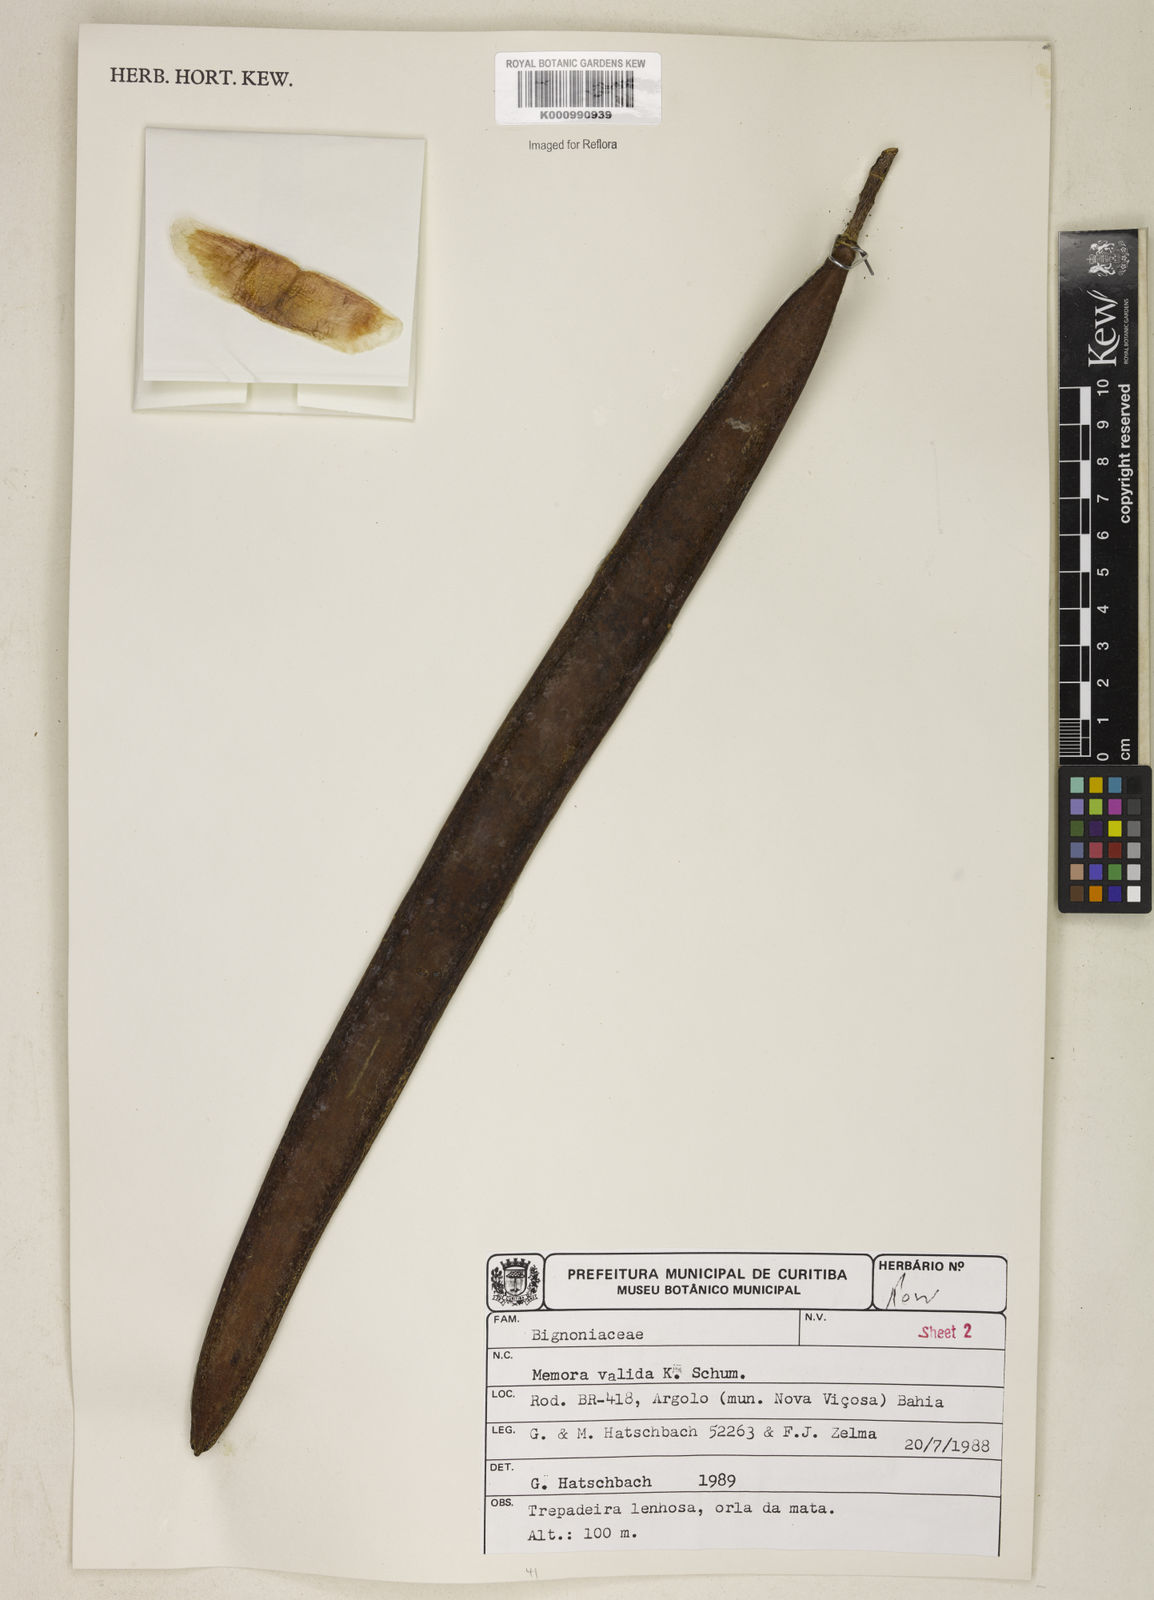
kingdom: Plantae
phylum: Tracheophyta
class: Magnoliopsida
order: Lamiales
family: Bignoniaceae
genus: Adenocalymma
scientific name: Adenocalymma validum
